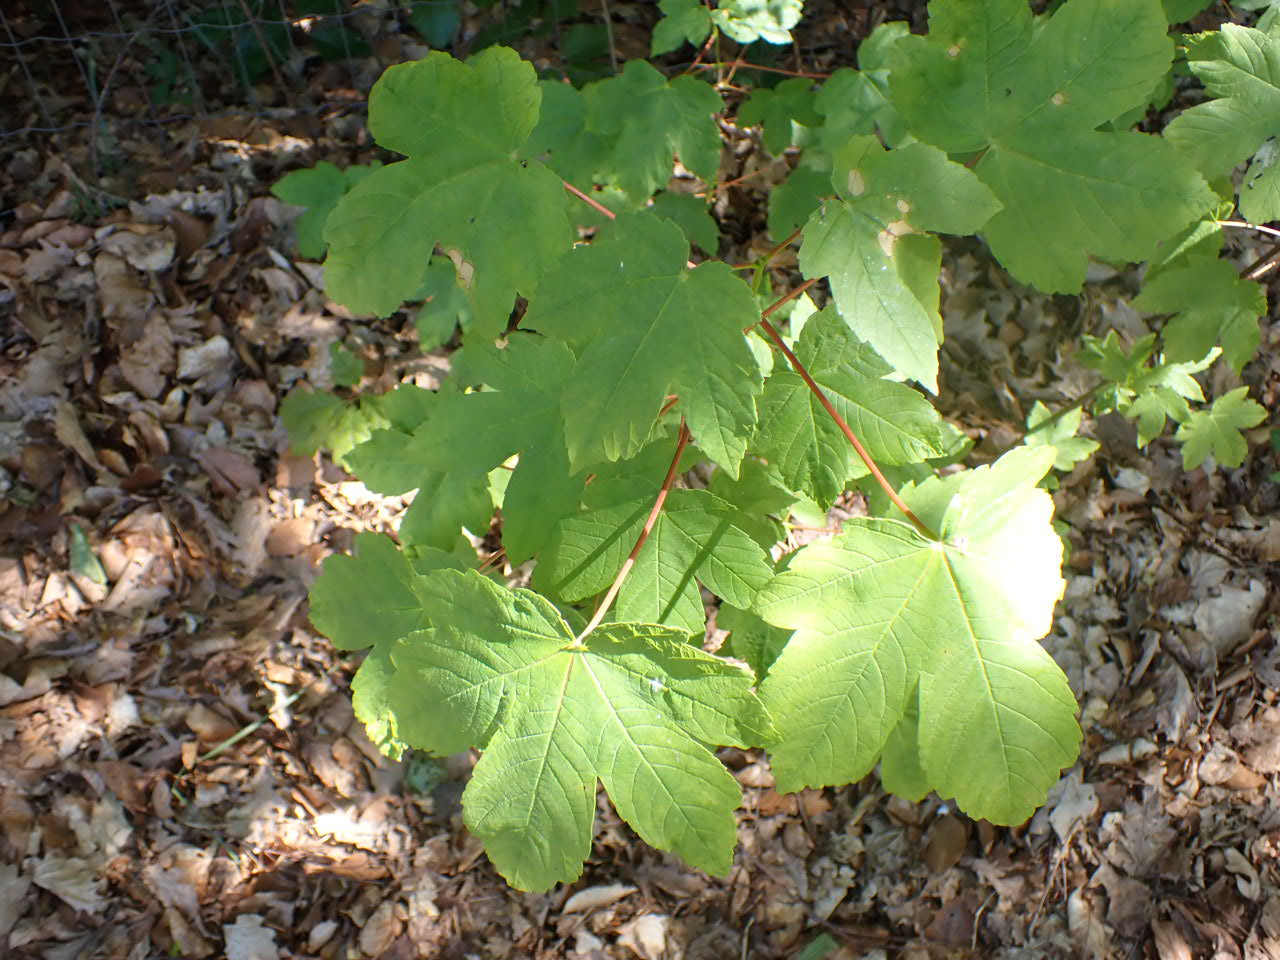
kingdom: Plantae
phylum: Tracheophyta
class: Magnoliopsida
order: Sapindales
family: Sapindaceae
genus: Acer
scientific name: Acer pseudoplatanus
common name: Ahorn
